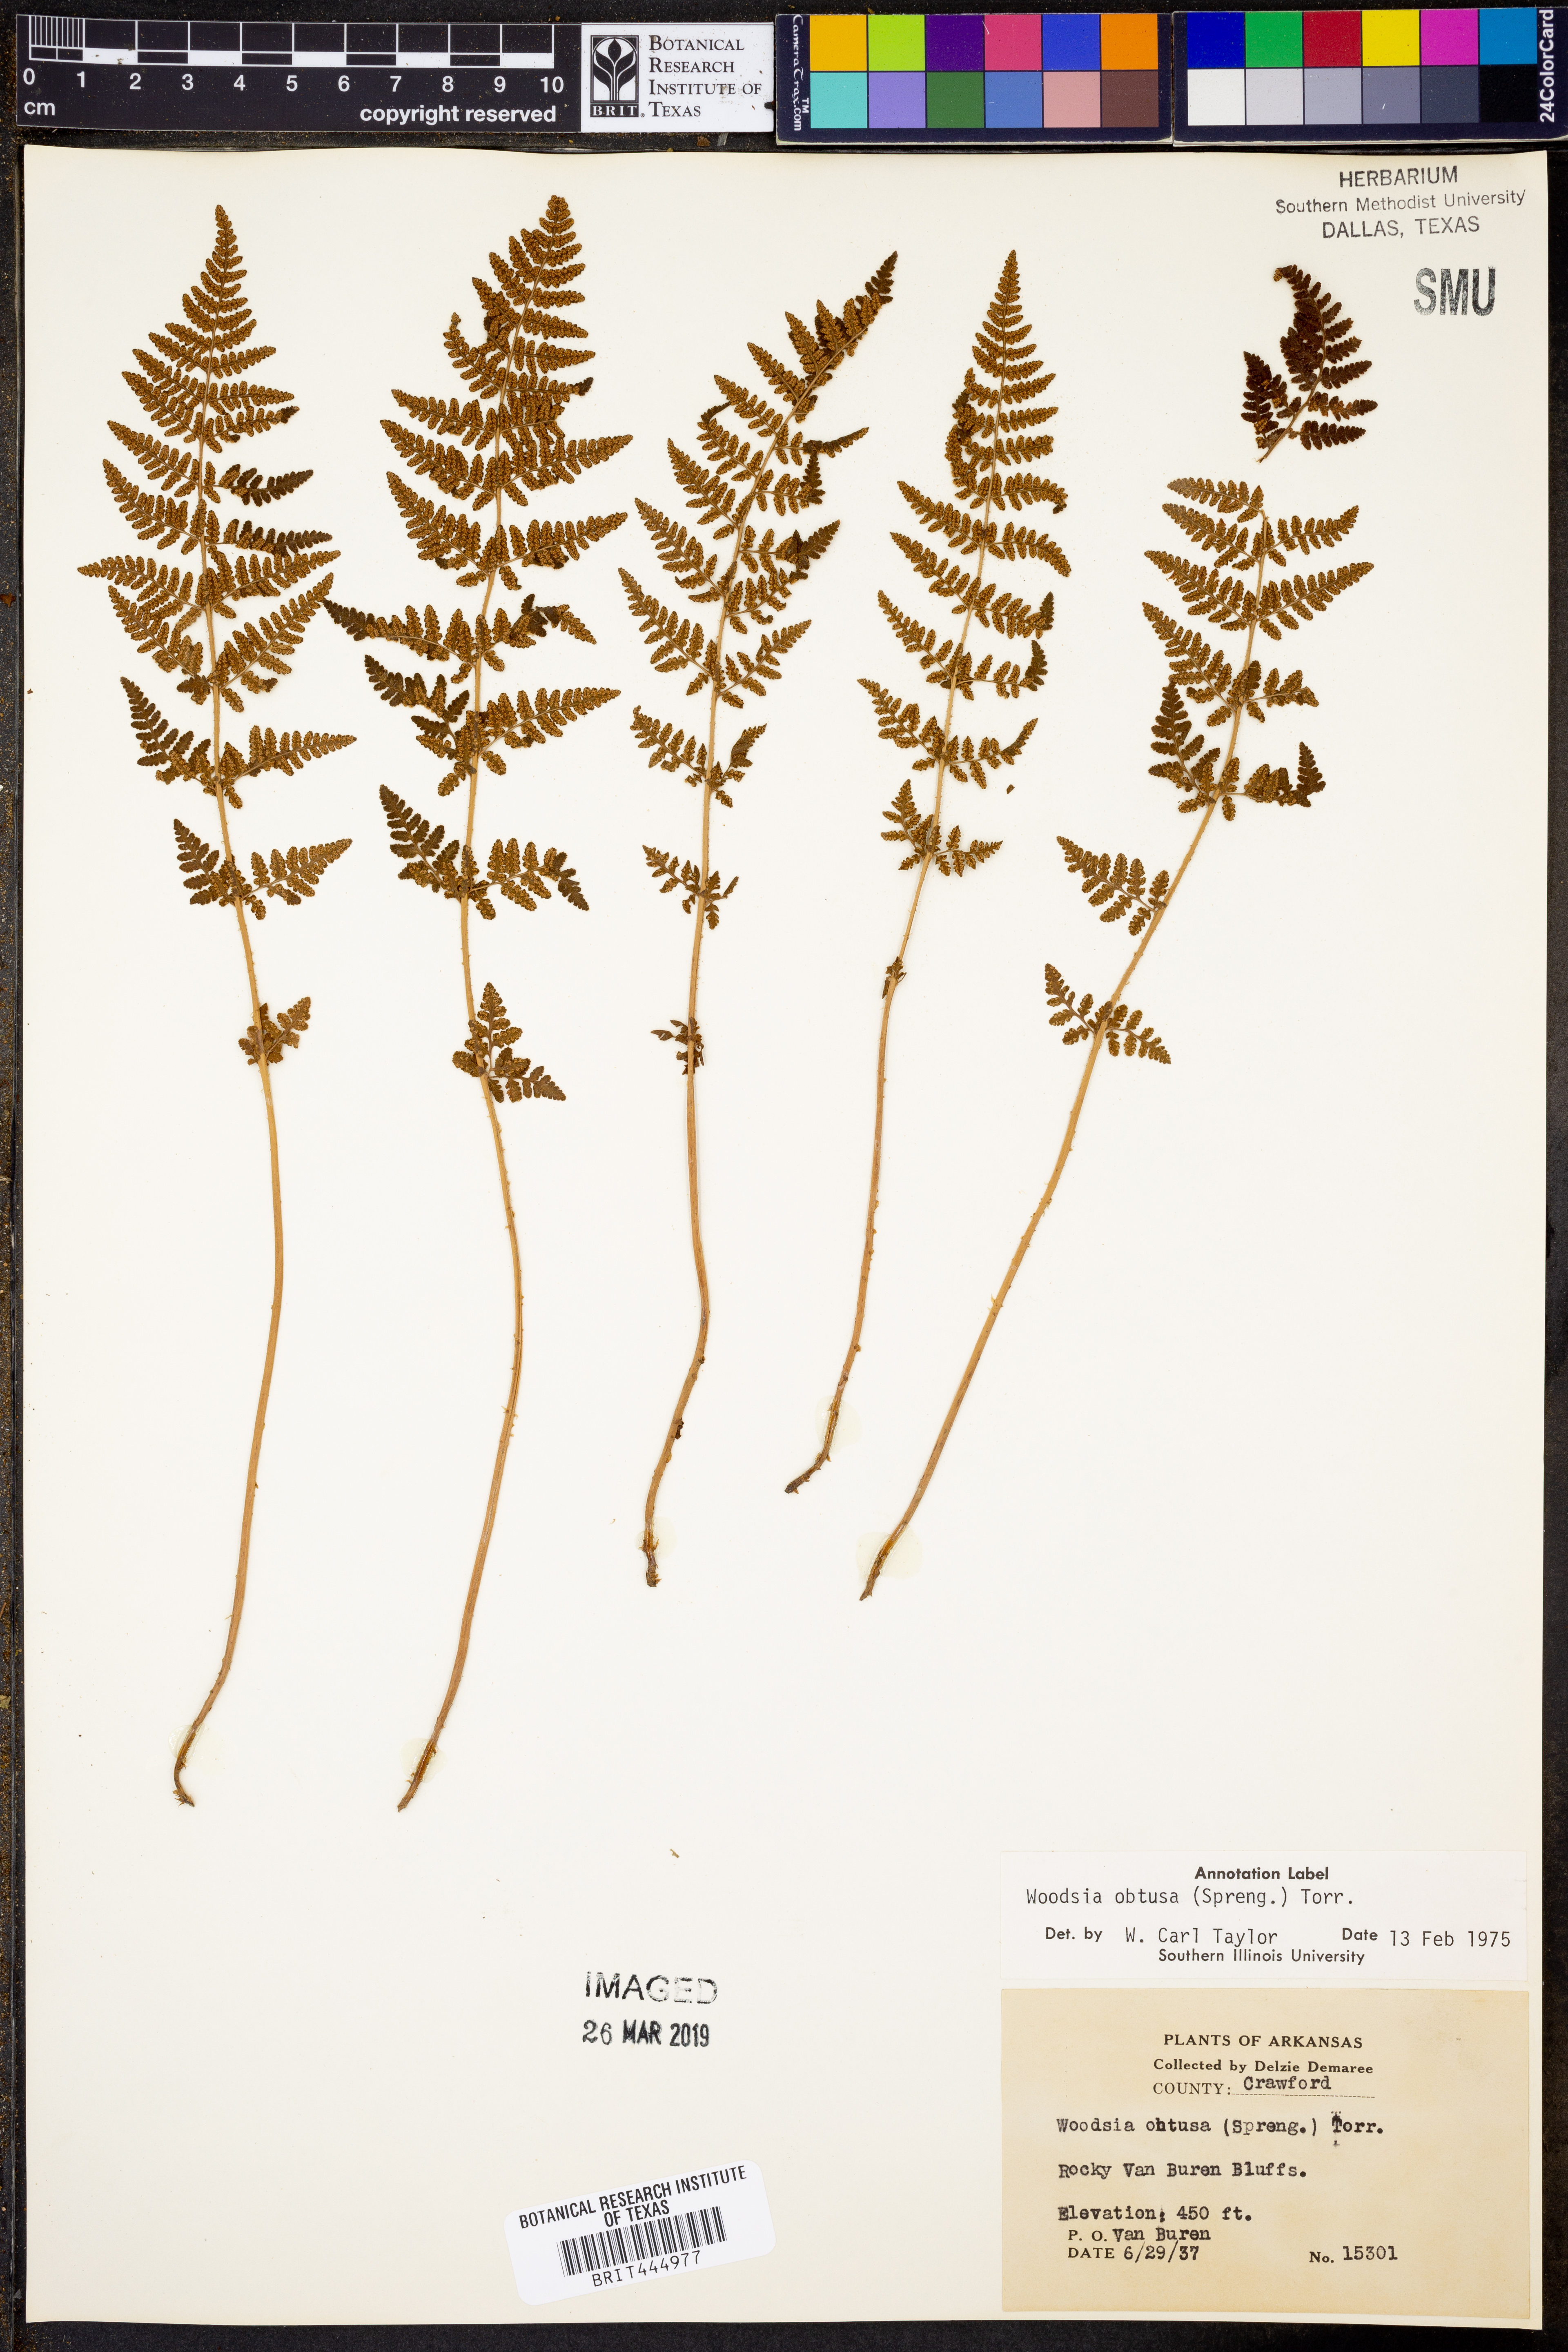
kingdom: Plantae
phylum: Tracheophyta
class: Polypodiopsida
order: Polypodiales
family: Woodsiaceae
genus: Physematium
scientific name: Physematium obtusum
